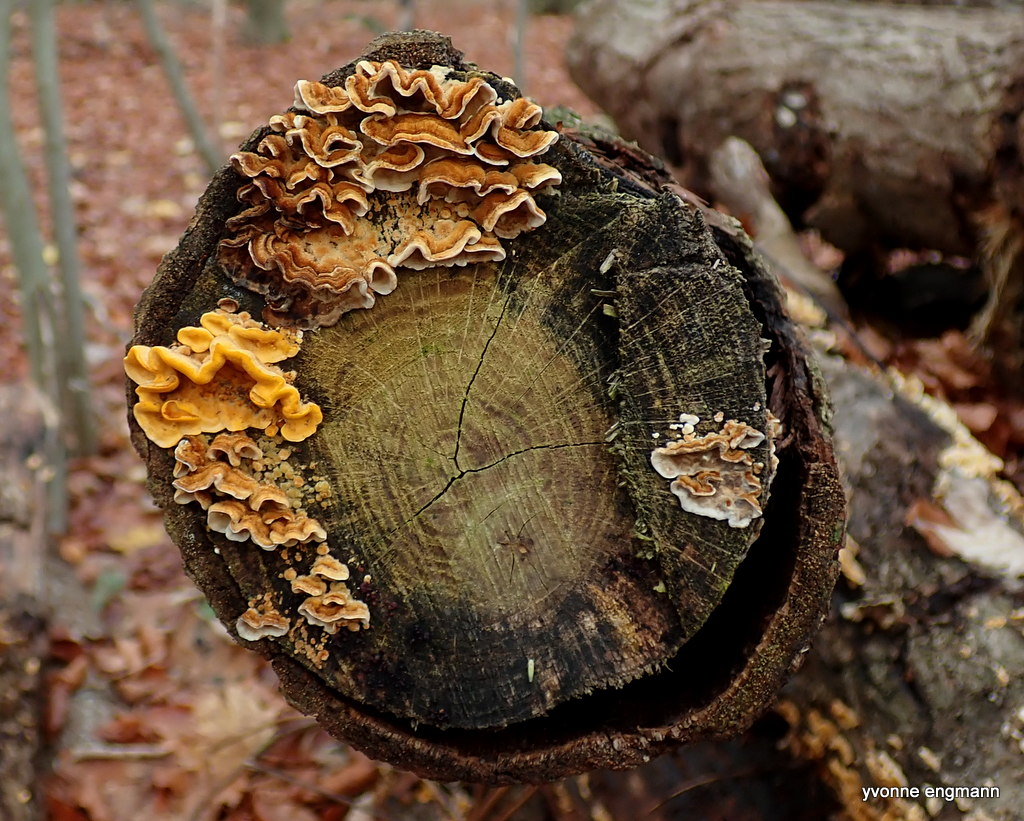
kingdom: Fungi
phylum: Basidiomycota
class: Agaricomycetes
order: Russulales
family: Stereaceae
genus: Stereum
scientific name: Stereum hirsutum
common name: håret lædersvamp
